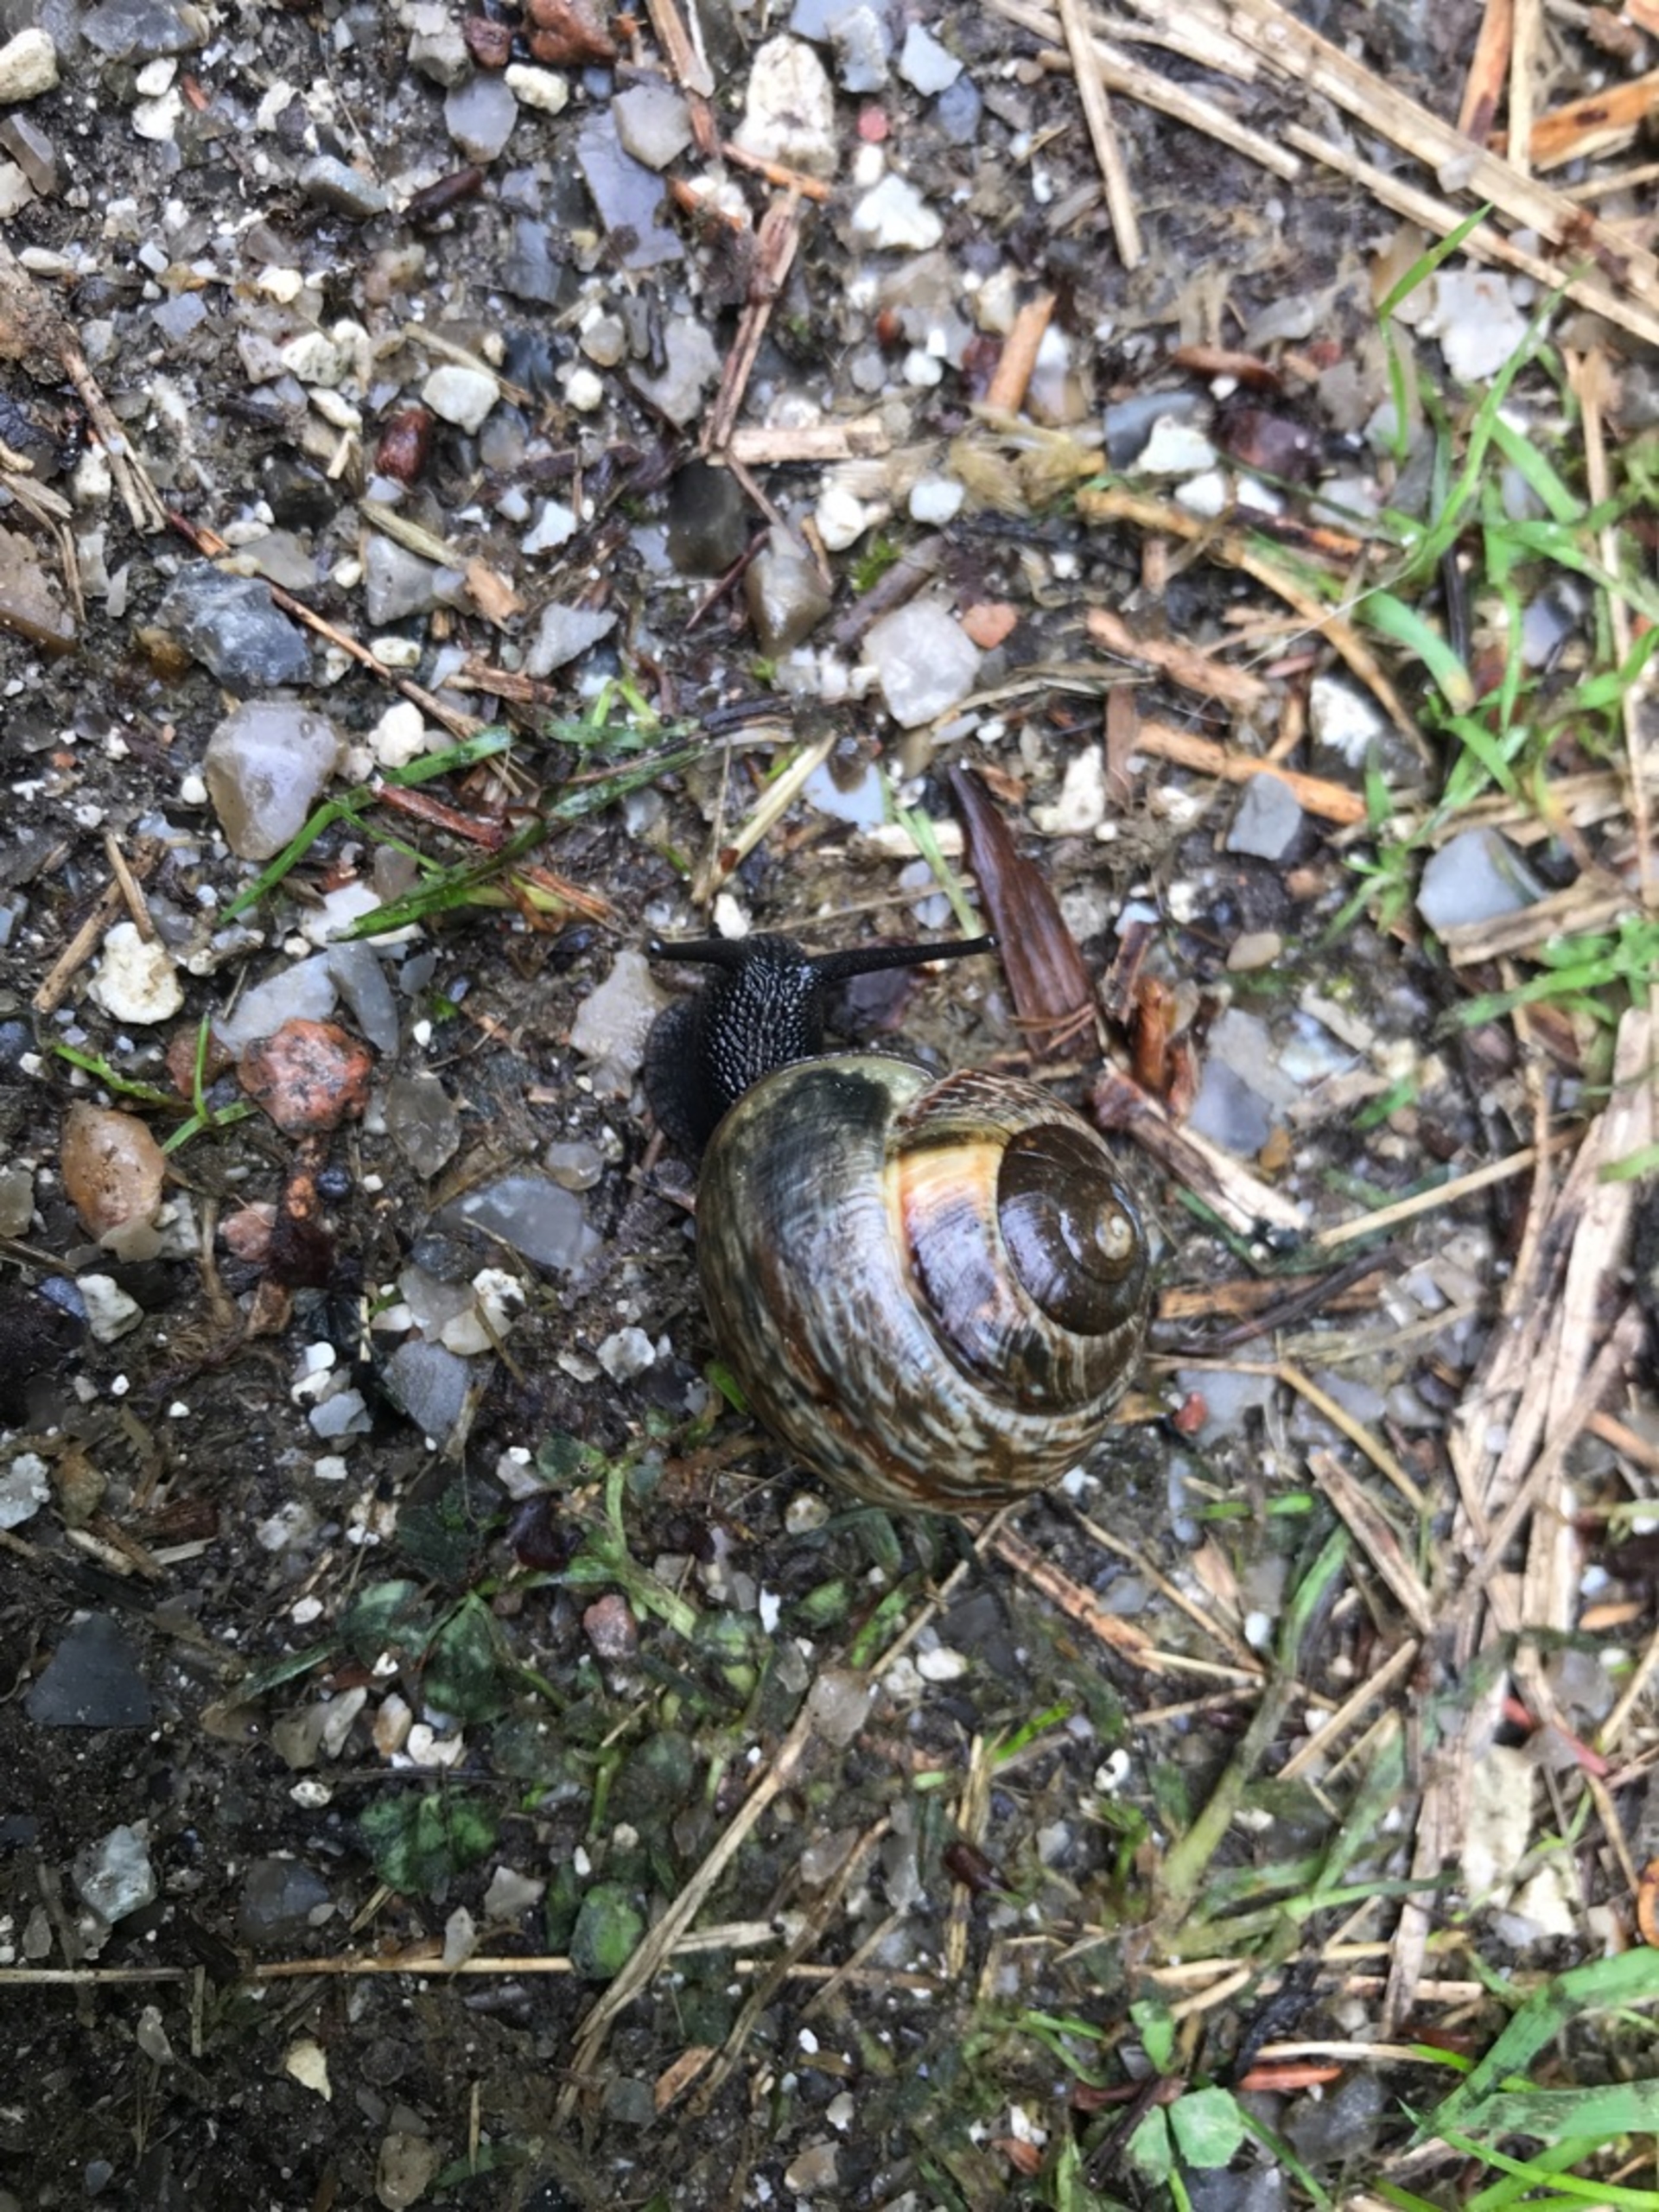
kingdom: Animalia
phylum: Mollusca
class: Gastropoda
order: Stylommatophora
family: Helicidae
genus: Arianta
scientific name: Arianta arbustorum
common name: Kratsnegl
